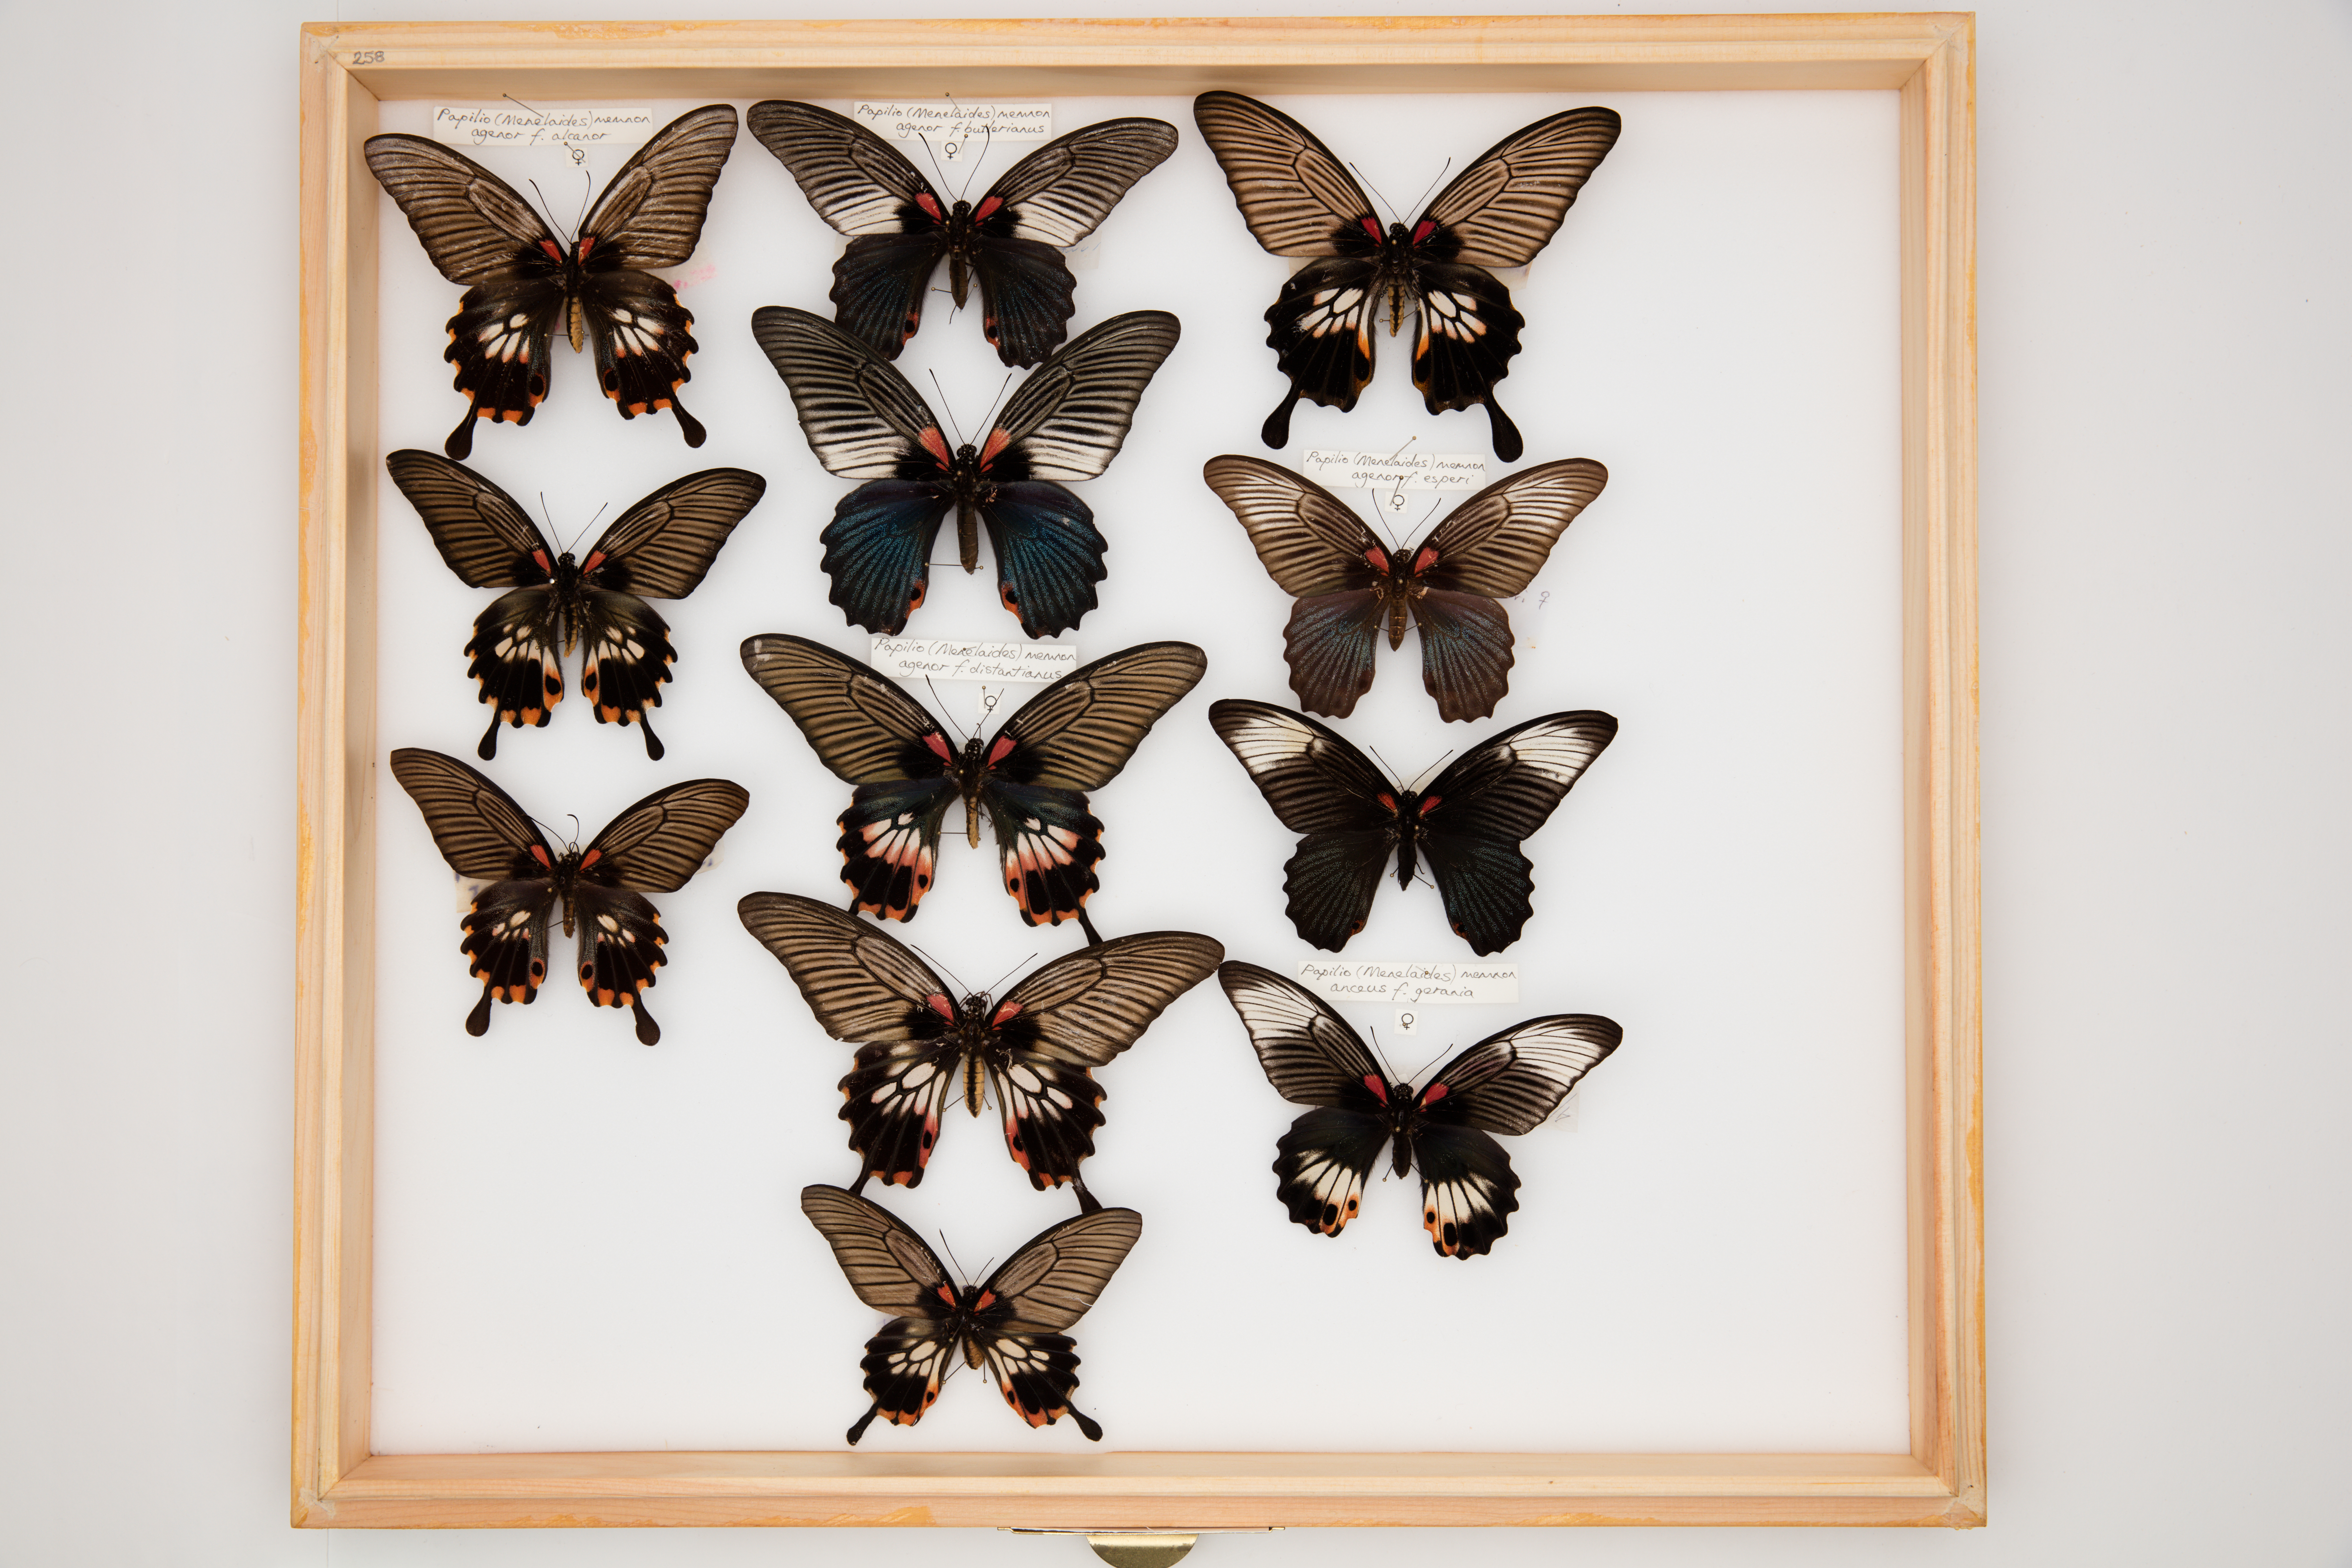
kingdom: Animalia
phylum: Arthropoda
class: Insecta
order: Lepidoptera
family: Papilionidae
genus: Papilio
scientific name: Papilio memnon
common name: Great mormon
